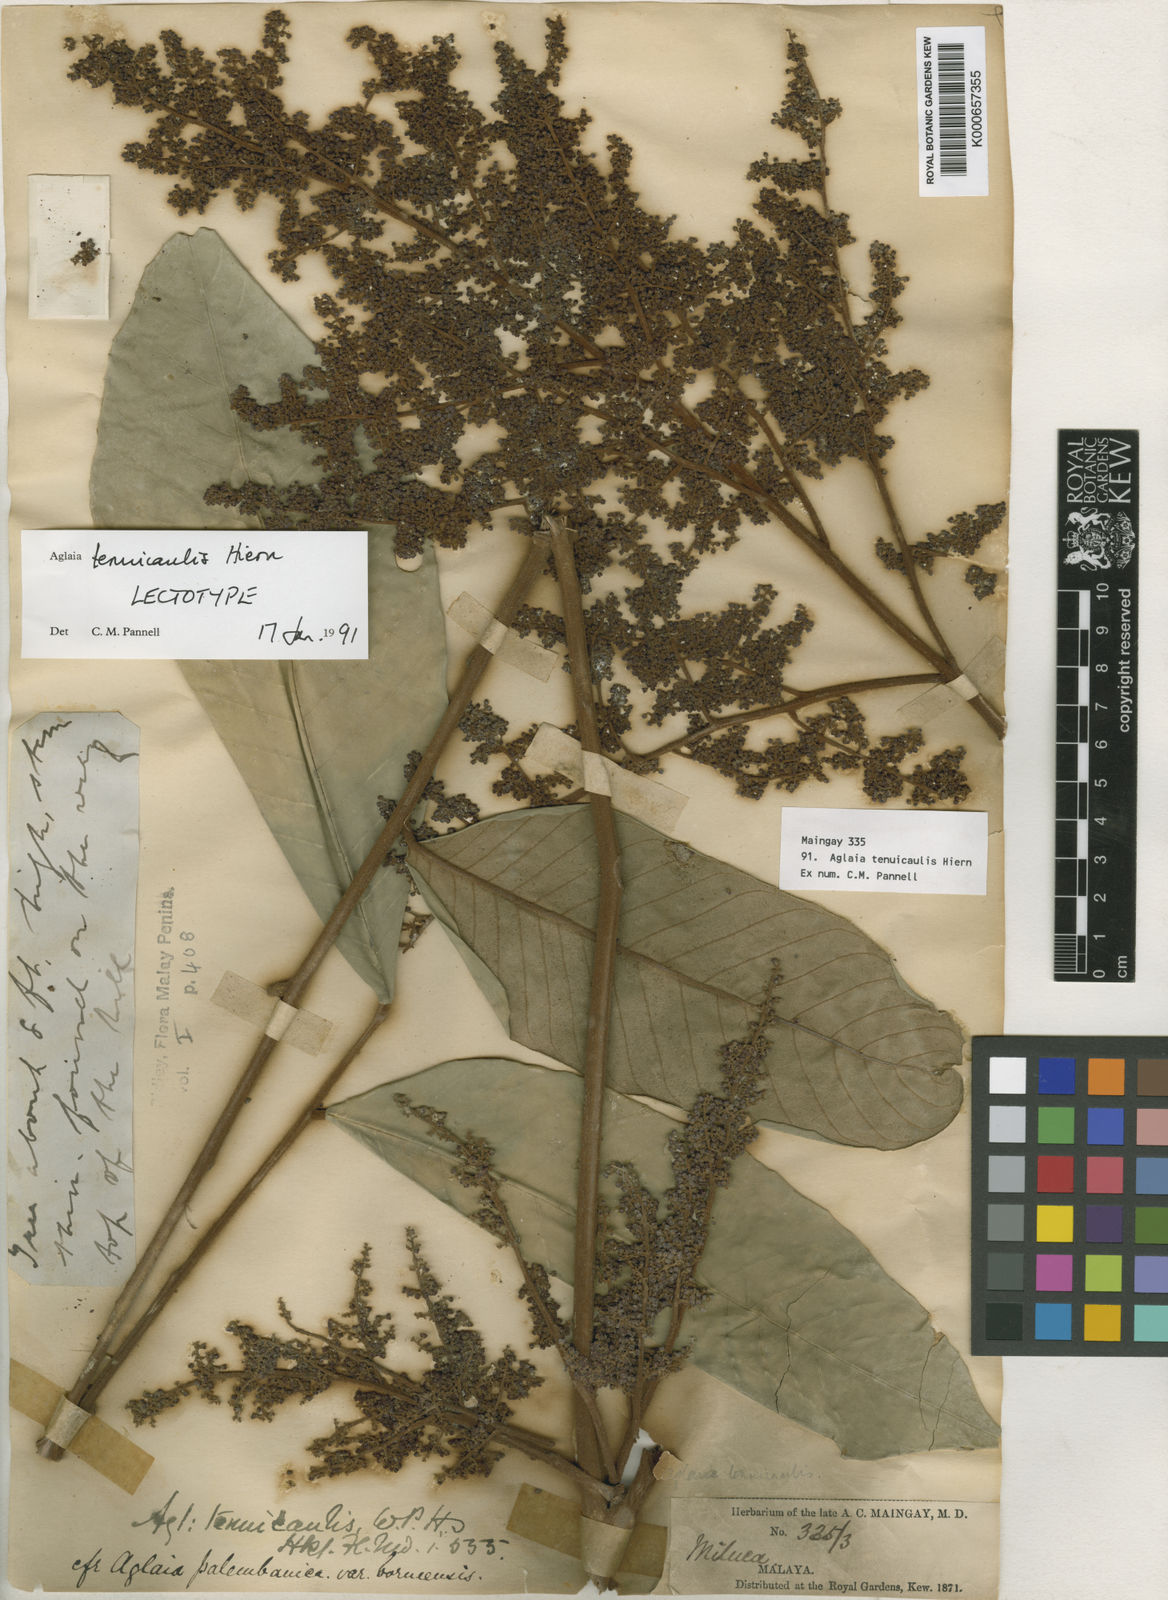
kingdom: Plantae
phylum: Tracheophyta
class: Magnoliopsida
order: Sapindales
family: Meliaceae
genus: Aglaia
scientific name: Aglaia tenuicaulis
